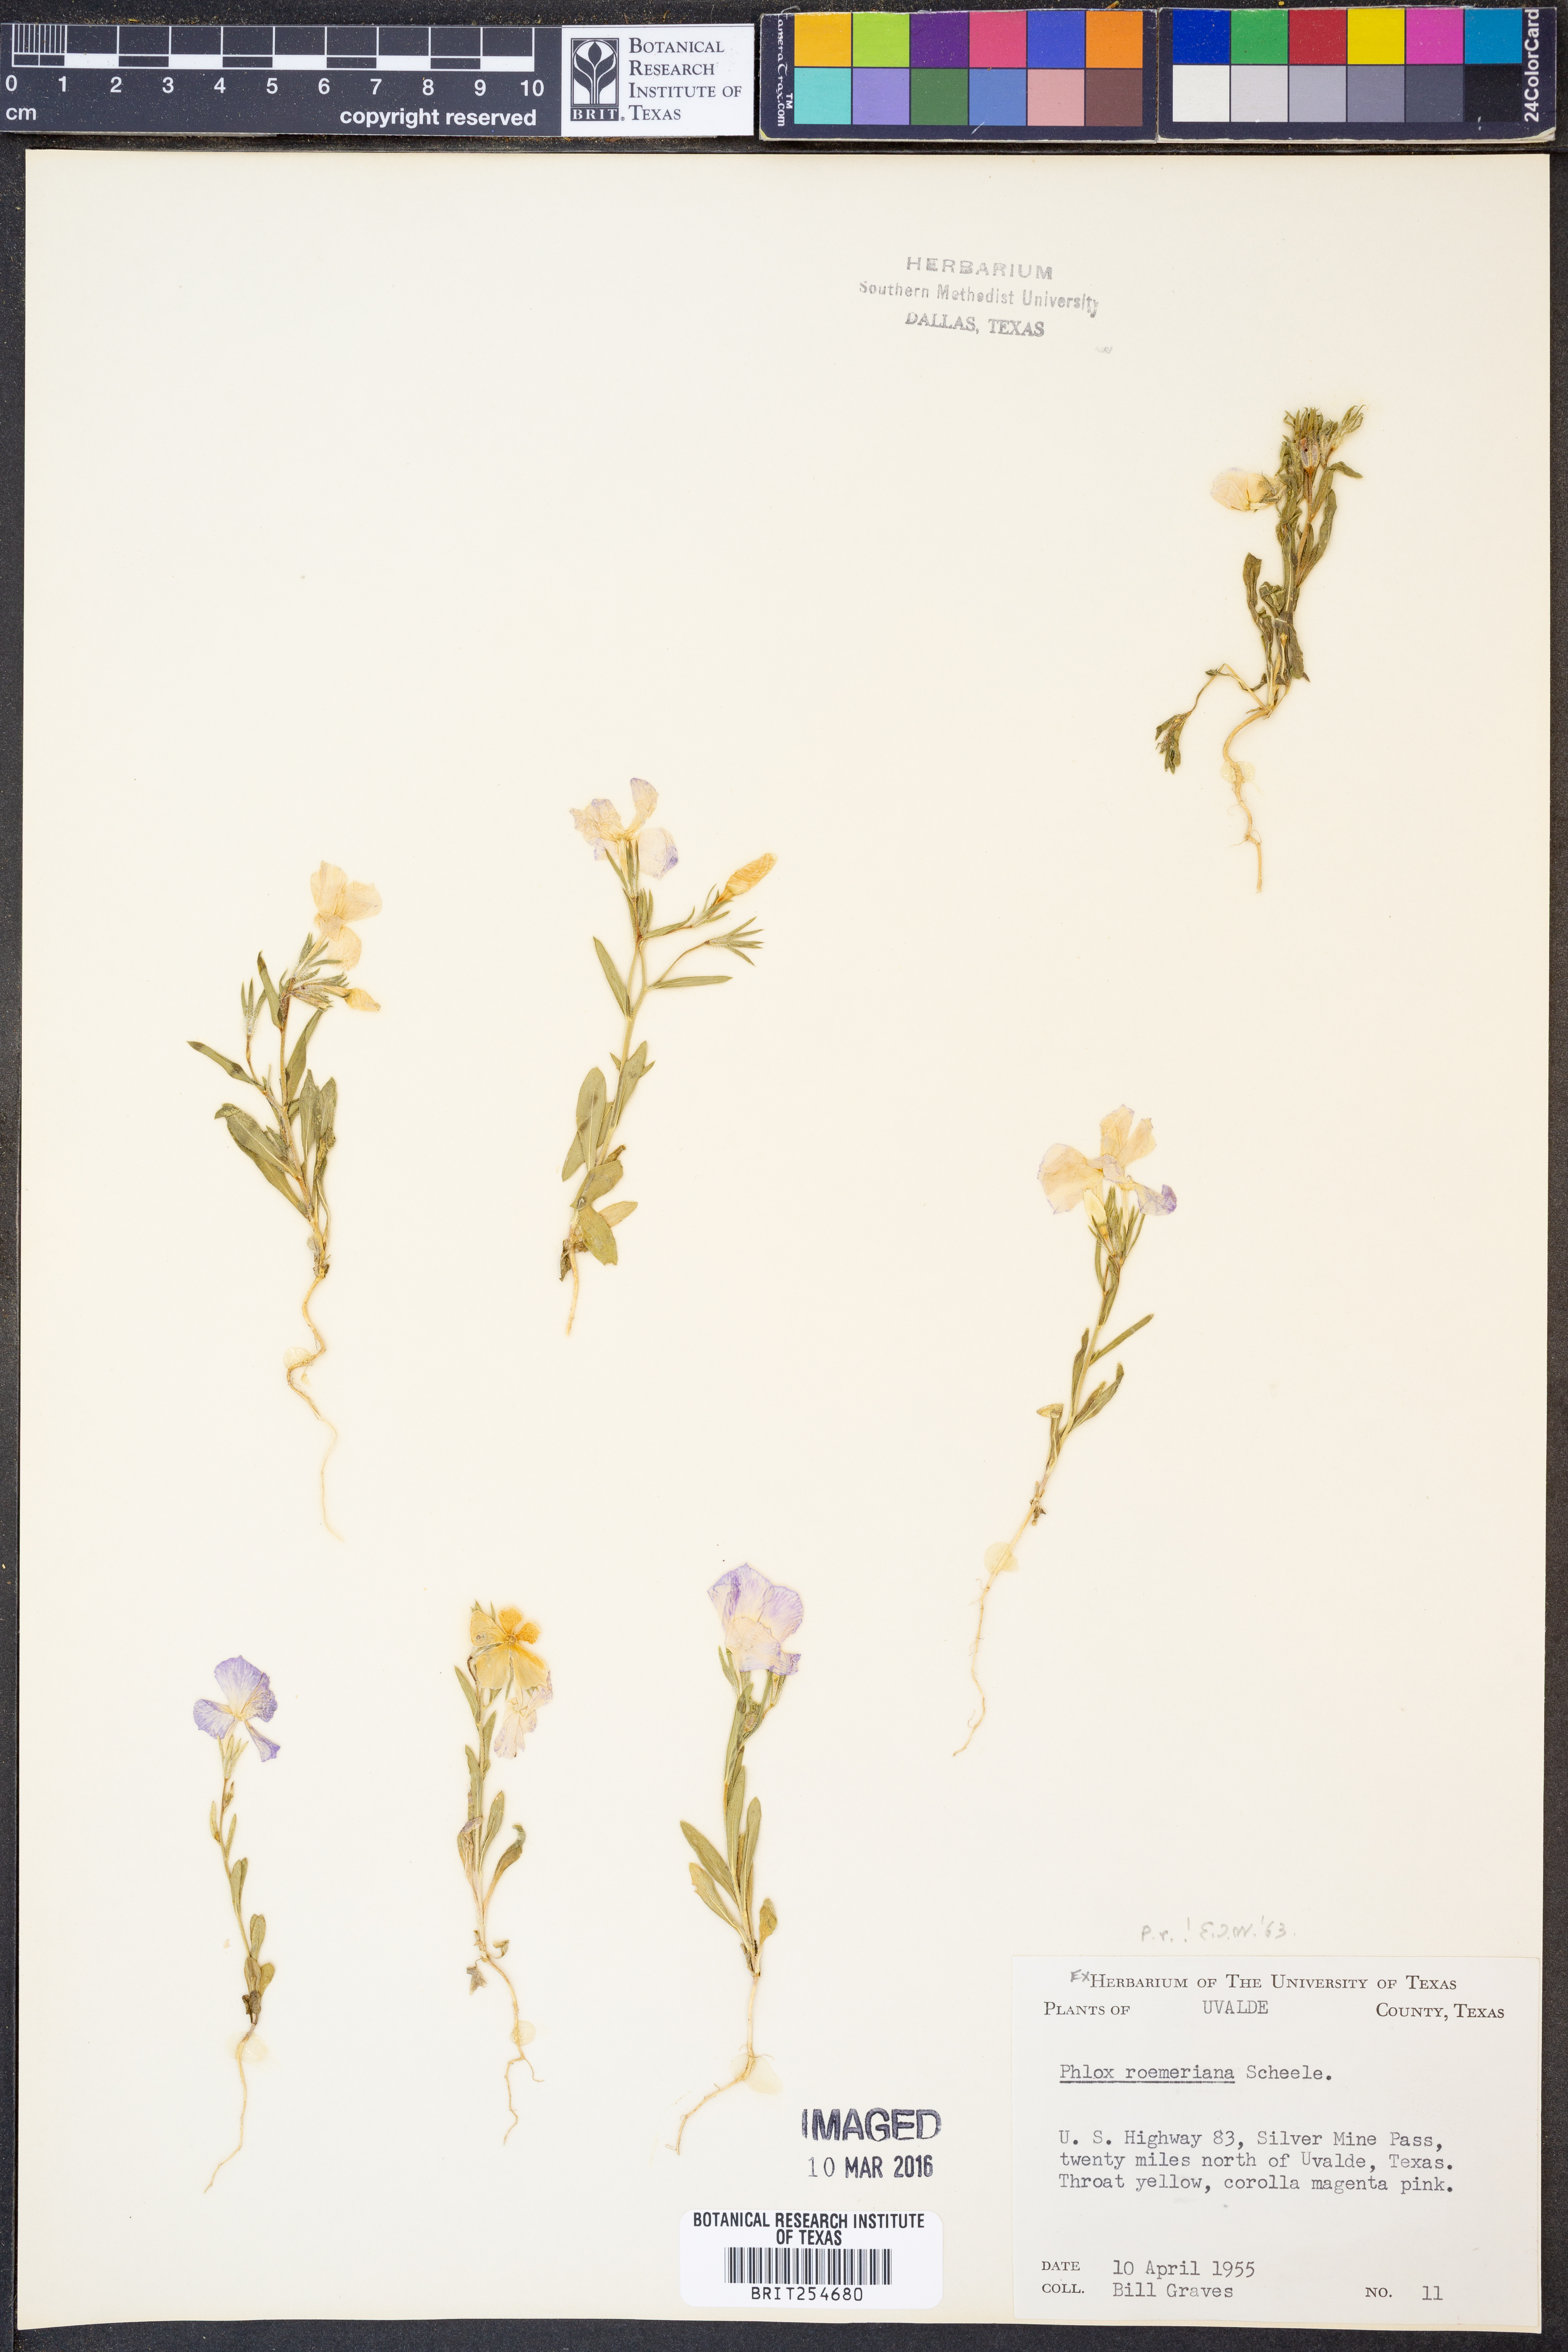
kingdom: Plantae
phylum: Tracheophyta
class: Magnoliopsida
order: Ericales
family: Polemoniaceae
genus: Phlox
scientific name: Phlox roemeriana
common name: Roemer's phlox
